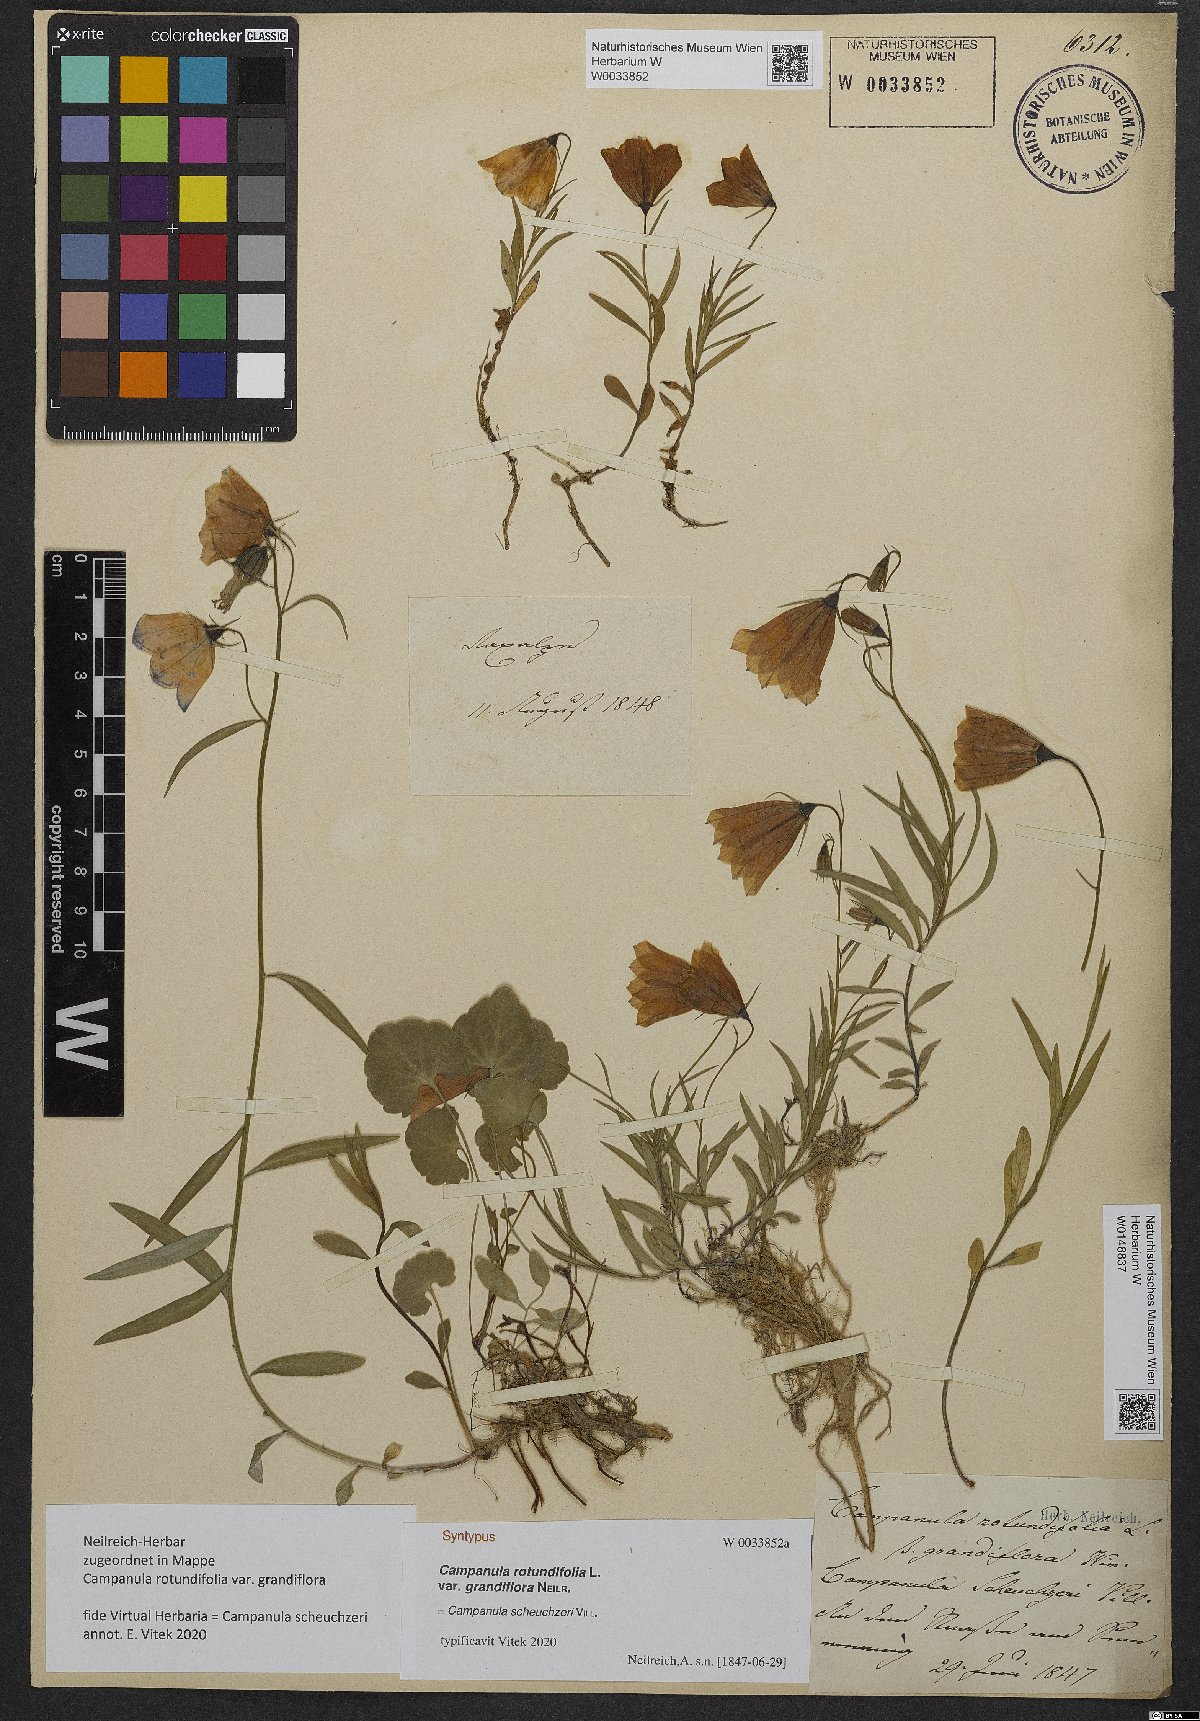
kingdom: Plantae
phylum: Tracheophyta
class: Magnoliopsida
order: Asterales
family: Campanulaceae
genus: Campanula
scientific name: Campanula scheuchzeri
